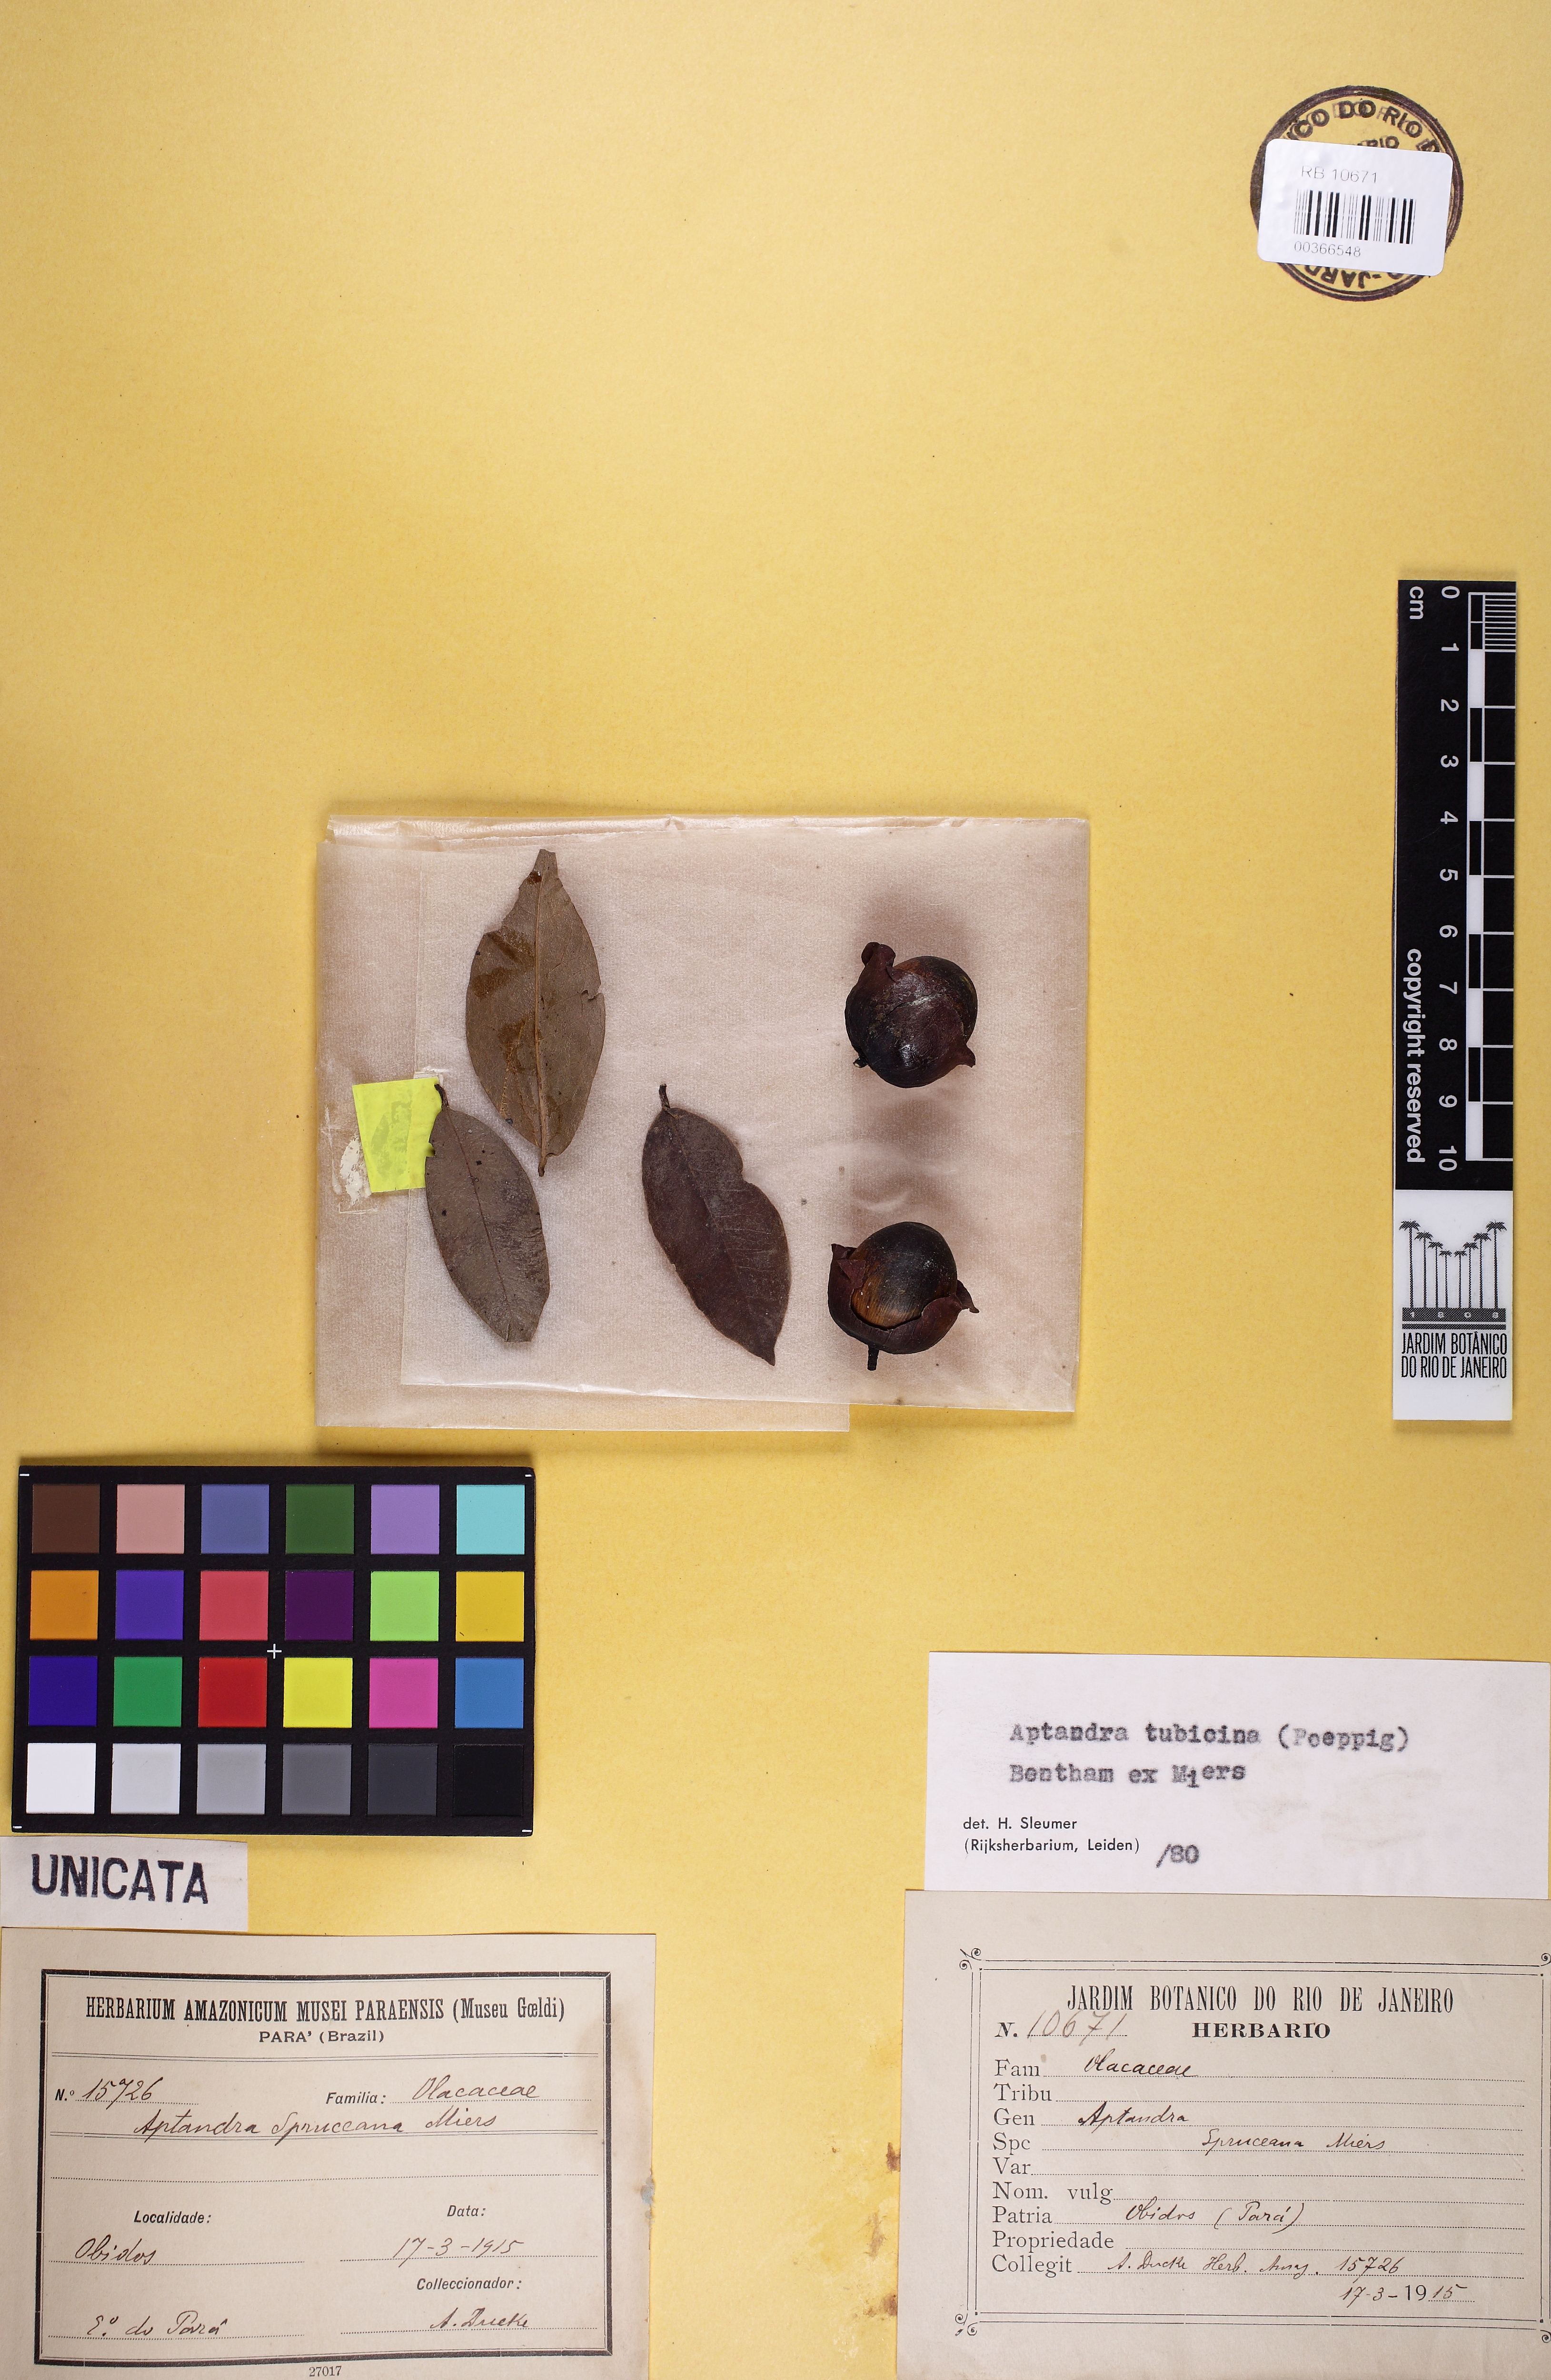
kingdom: Plantae
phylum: Tracheophyta
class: Magnoliopsida
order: Santalales
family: Aptandraceae
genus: Aptandra
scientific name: Aptandra tubicina
